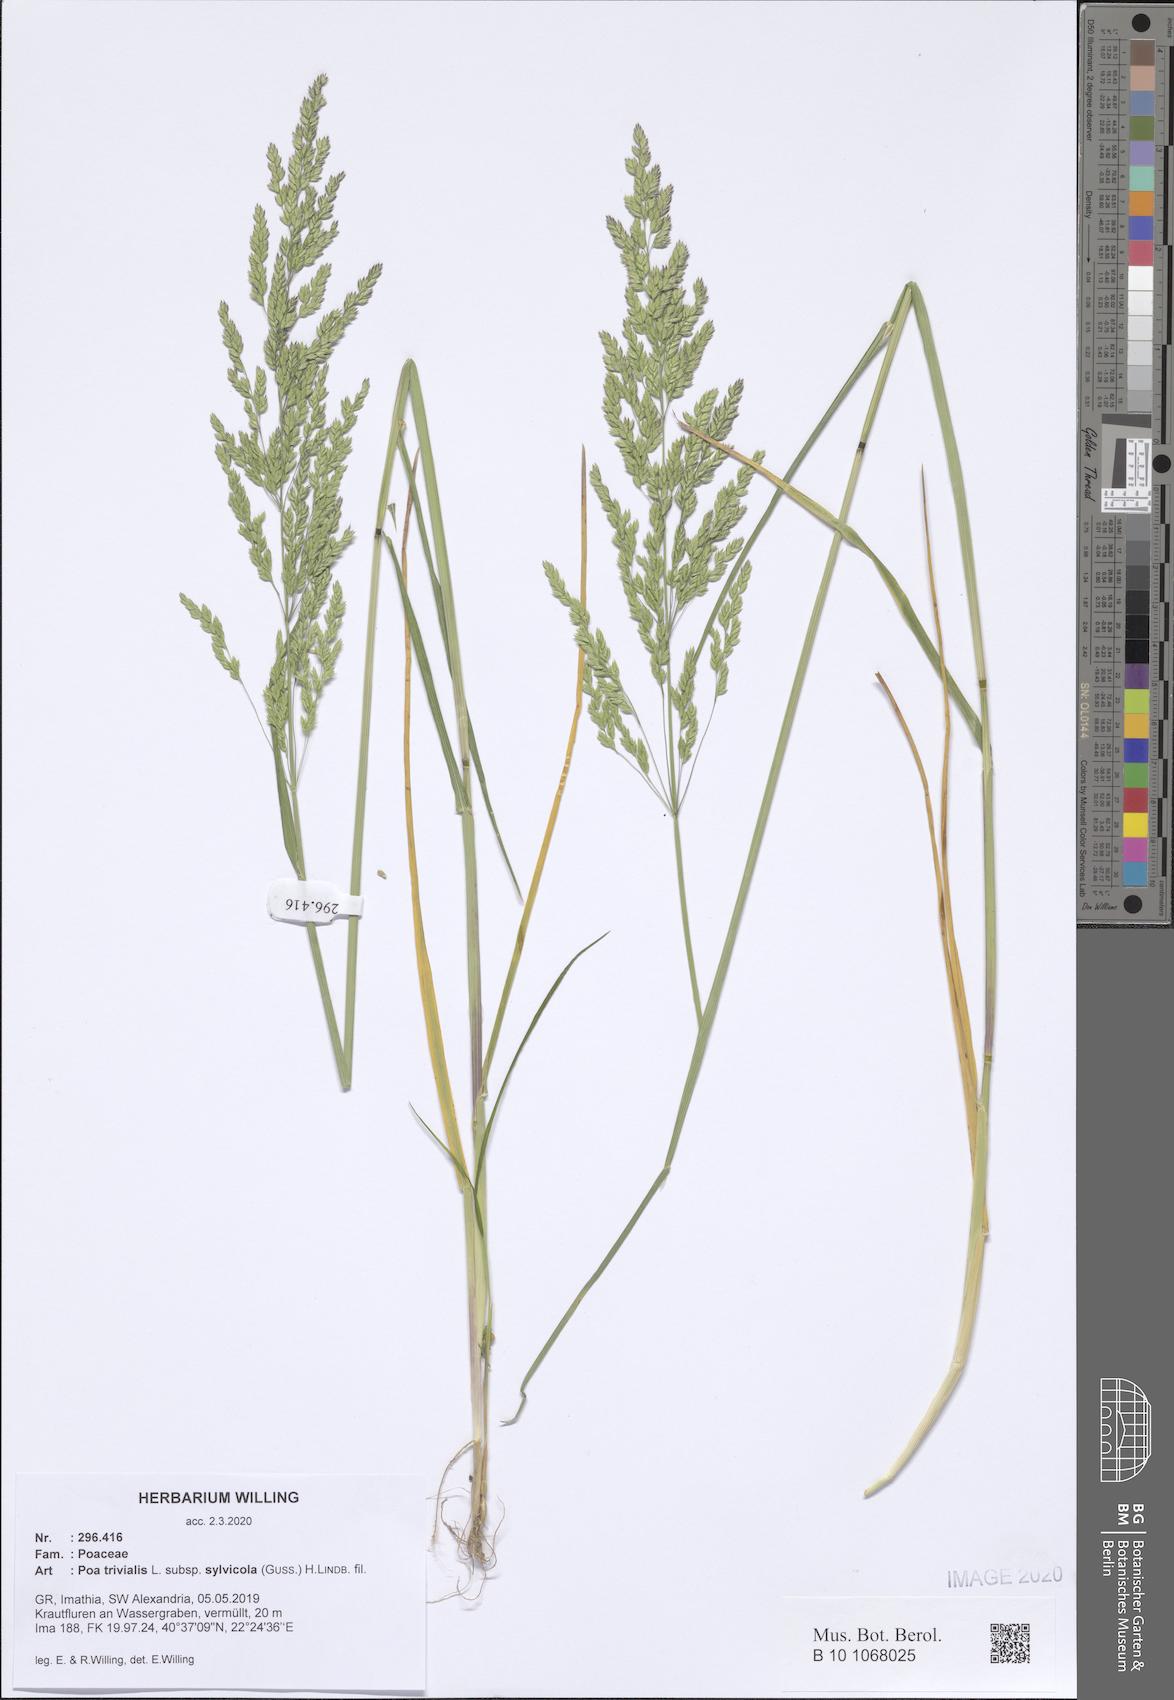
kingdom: Plantae
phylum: Tracheophyta
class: Liliopsida
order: Poales
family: Poaceae
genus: Poa
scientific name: Poa trivialis
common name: Rough bluegrass
